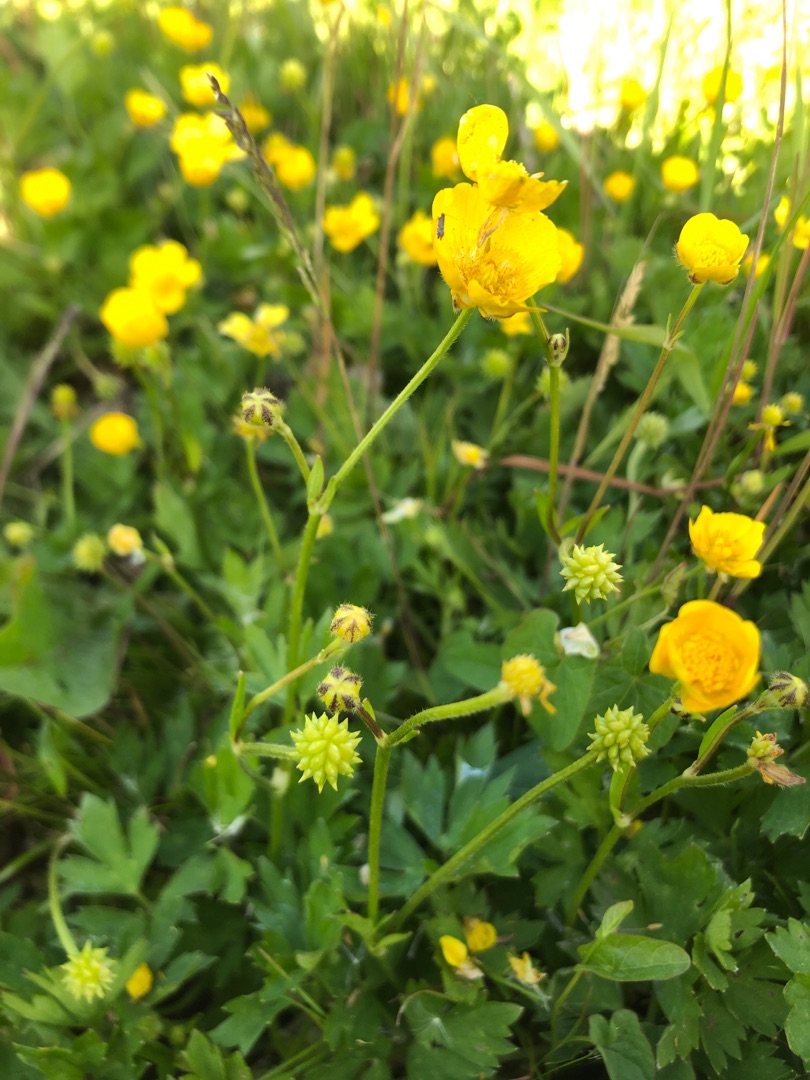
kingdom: Plantae
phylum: Tracheophyta
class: Magnoliopsida
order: Ranunculales
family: Ranunculaceae
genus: Ranunculus
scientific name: Ranunculus repens
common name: Lav ranunkel
